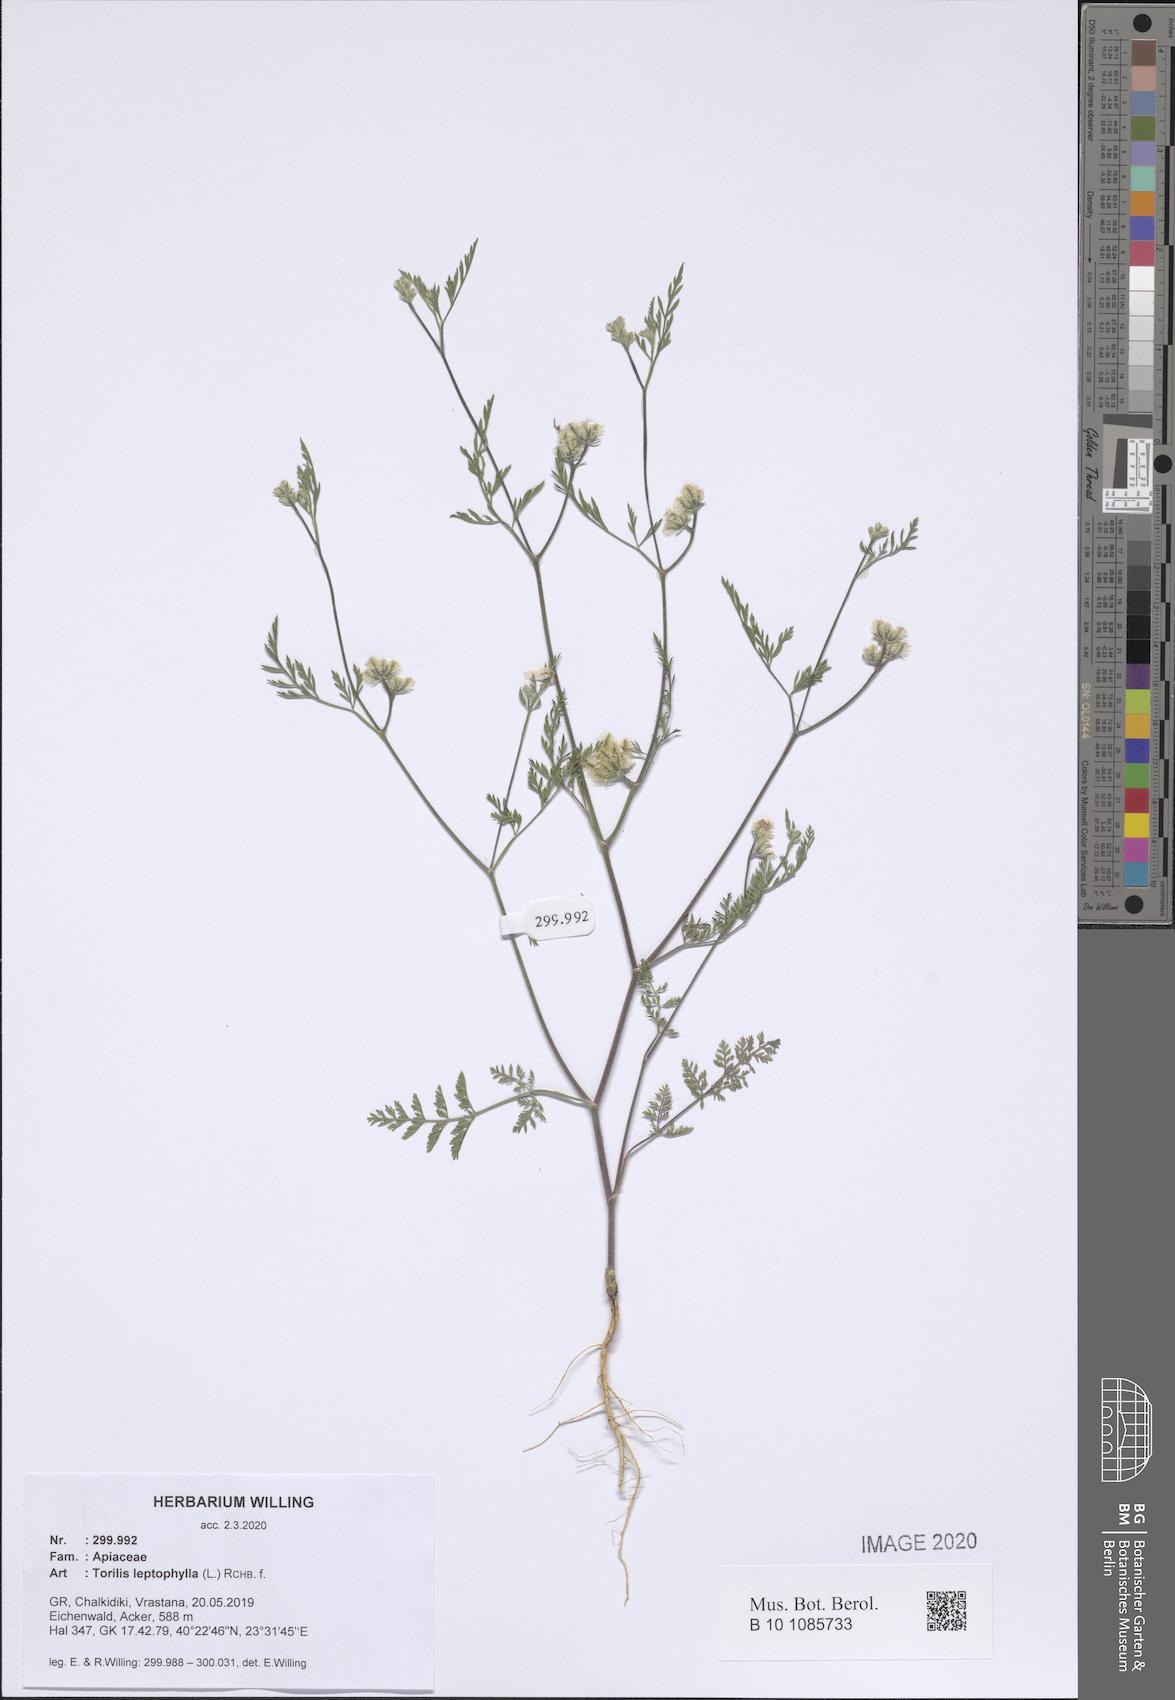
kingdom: Plantae
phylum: Tracheophyta
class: Magnoliopsida
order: Apiales
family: Apiaceae
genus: Torilis
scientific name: Torilis leptophylla
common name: Bristlefruit hedgeparsley
